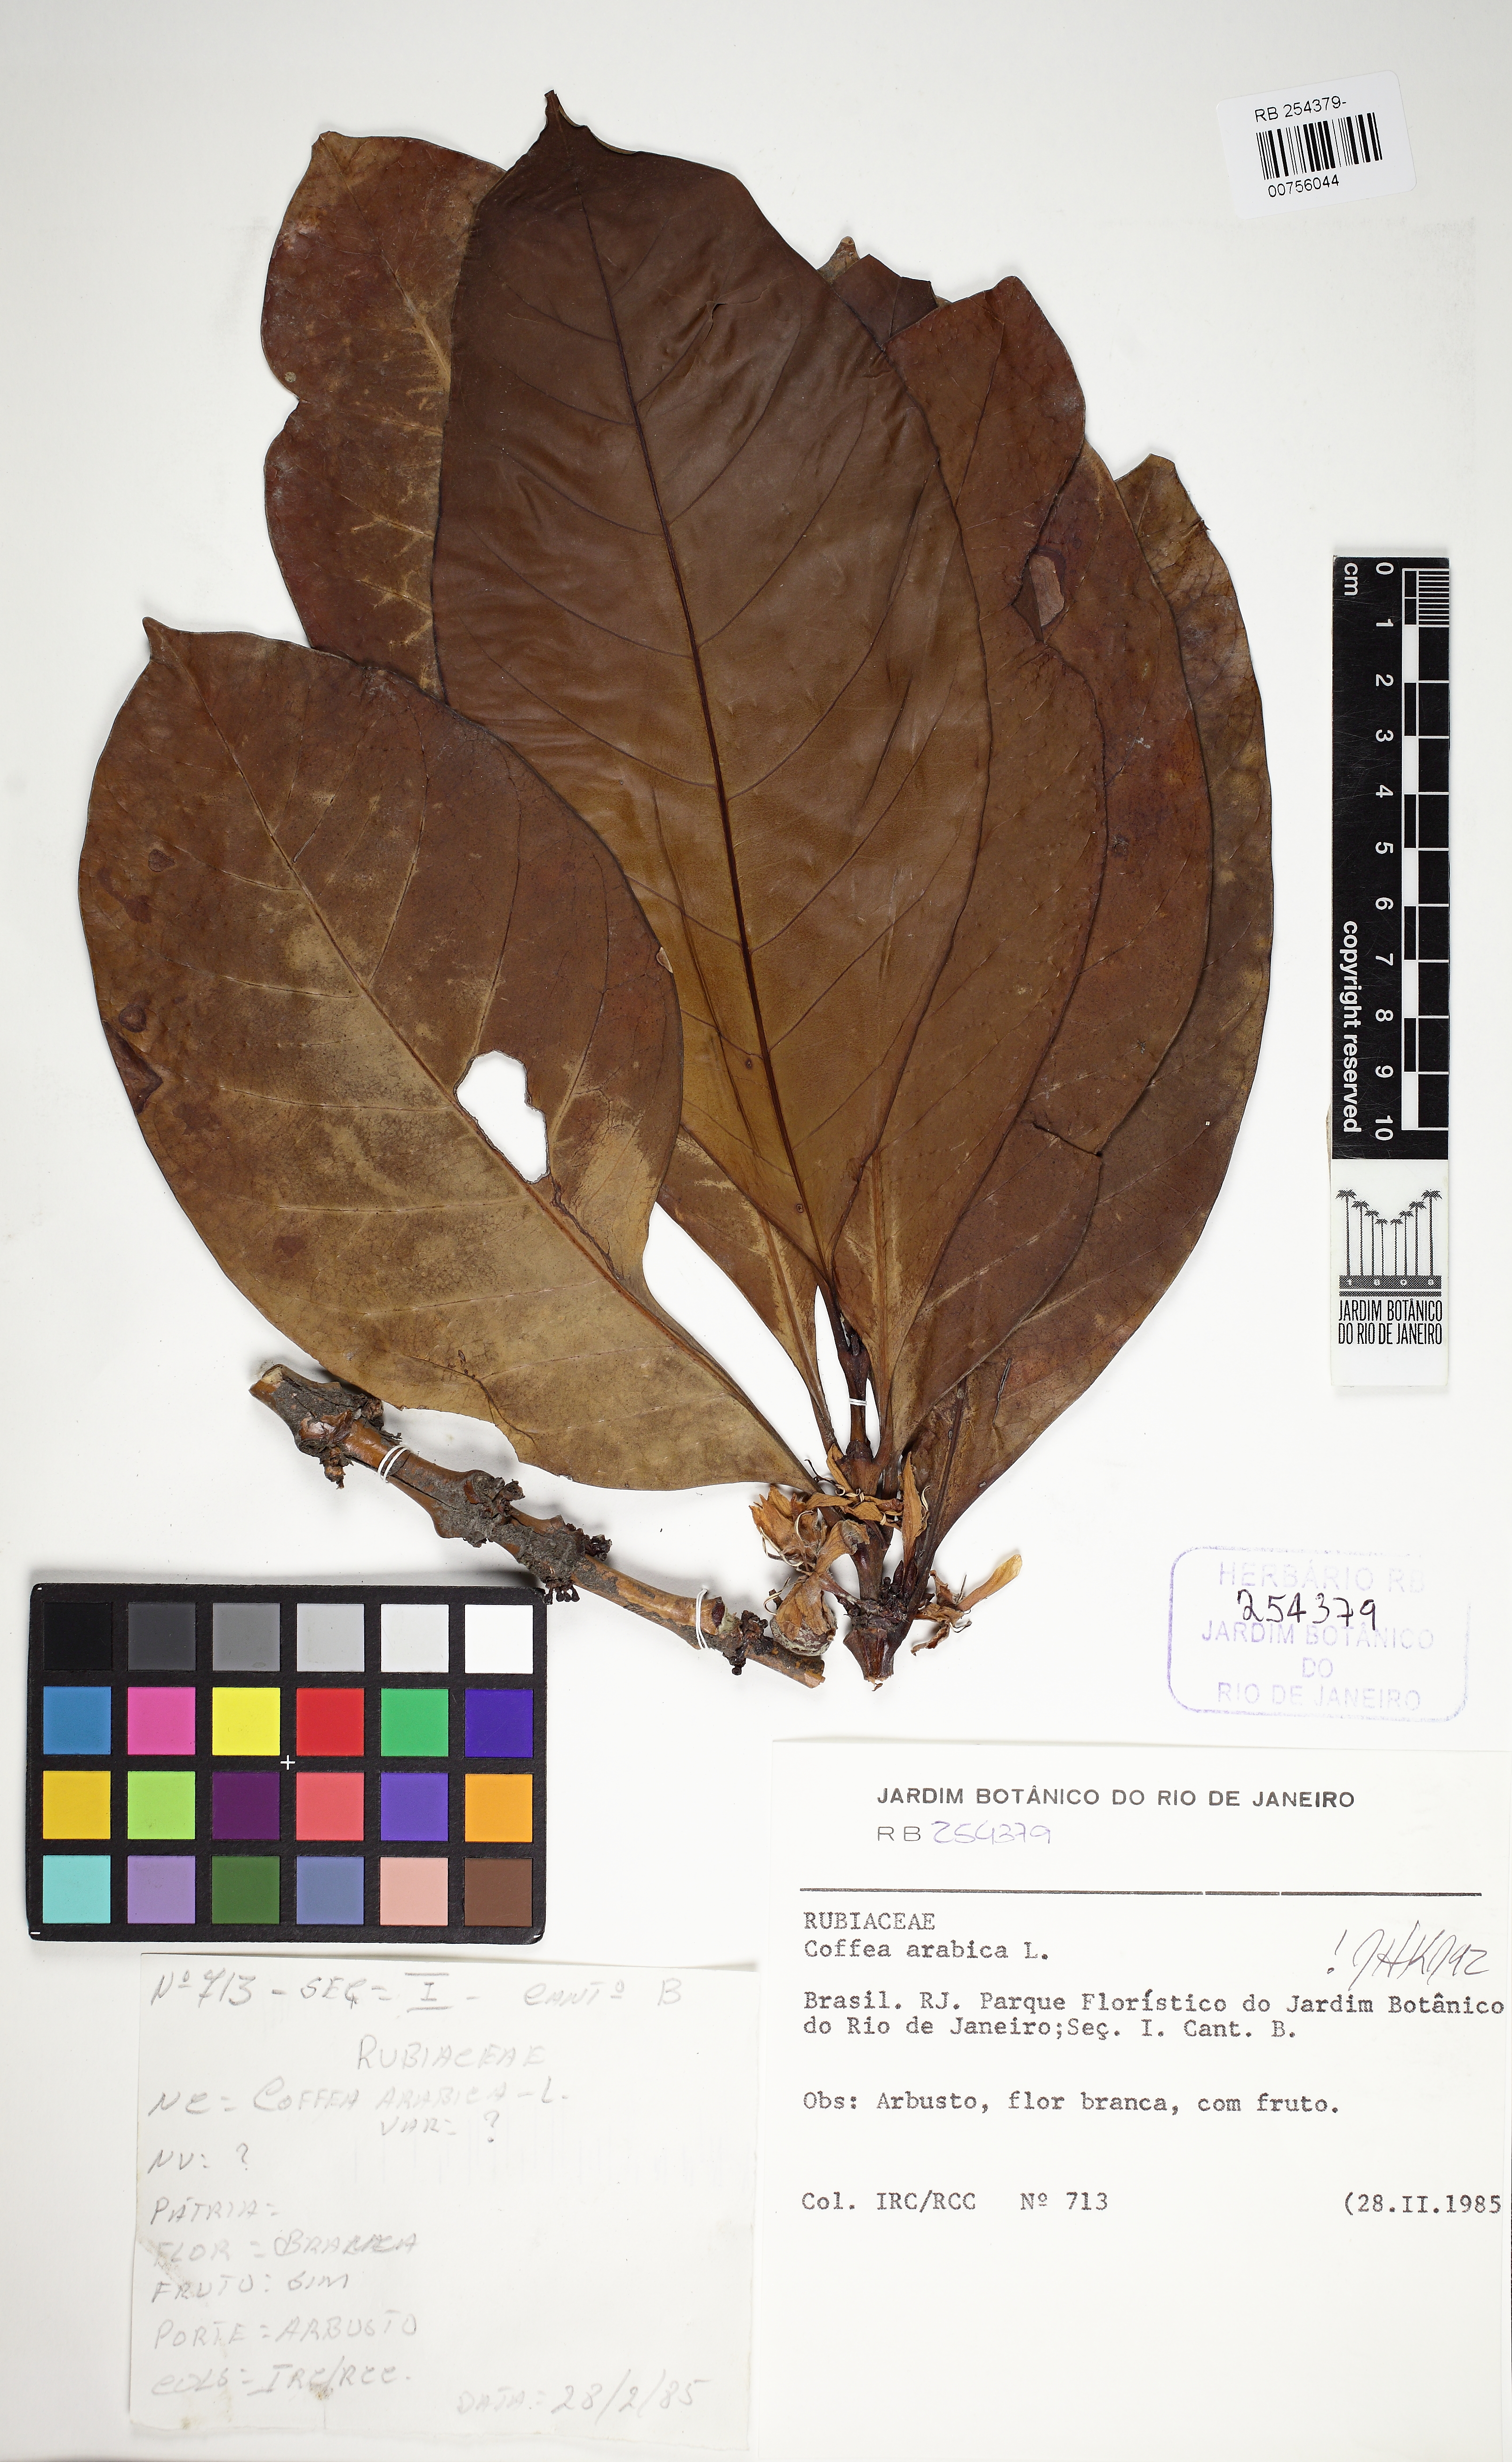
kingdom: Plantae
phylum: Tracheophyta
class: Magnoliopsida
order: Gentianales
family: Rubiaceae
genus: Coffea
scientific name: Coffea arabica
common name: Coffee
